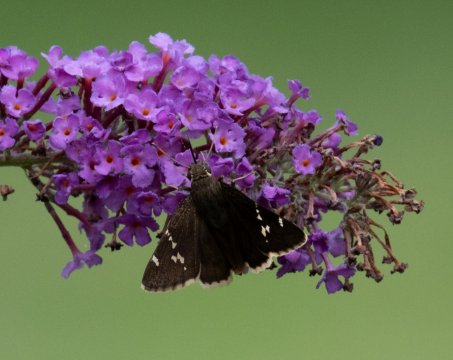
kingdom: Animalia
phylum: Arthropoda
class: Insecta
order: Lepidoptera
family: Hesperiidae
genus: Autochton
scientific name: Autochton
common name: Southern Cloudywing
